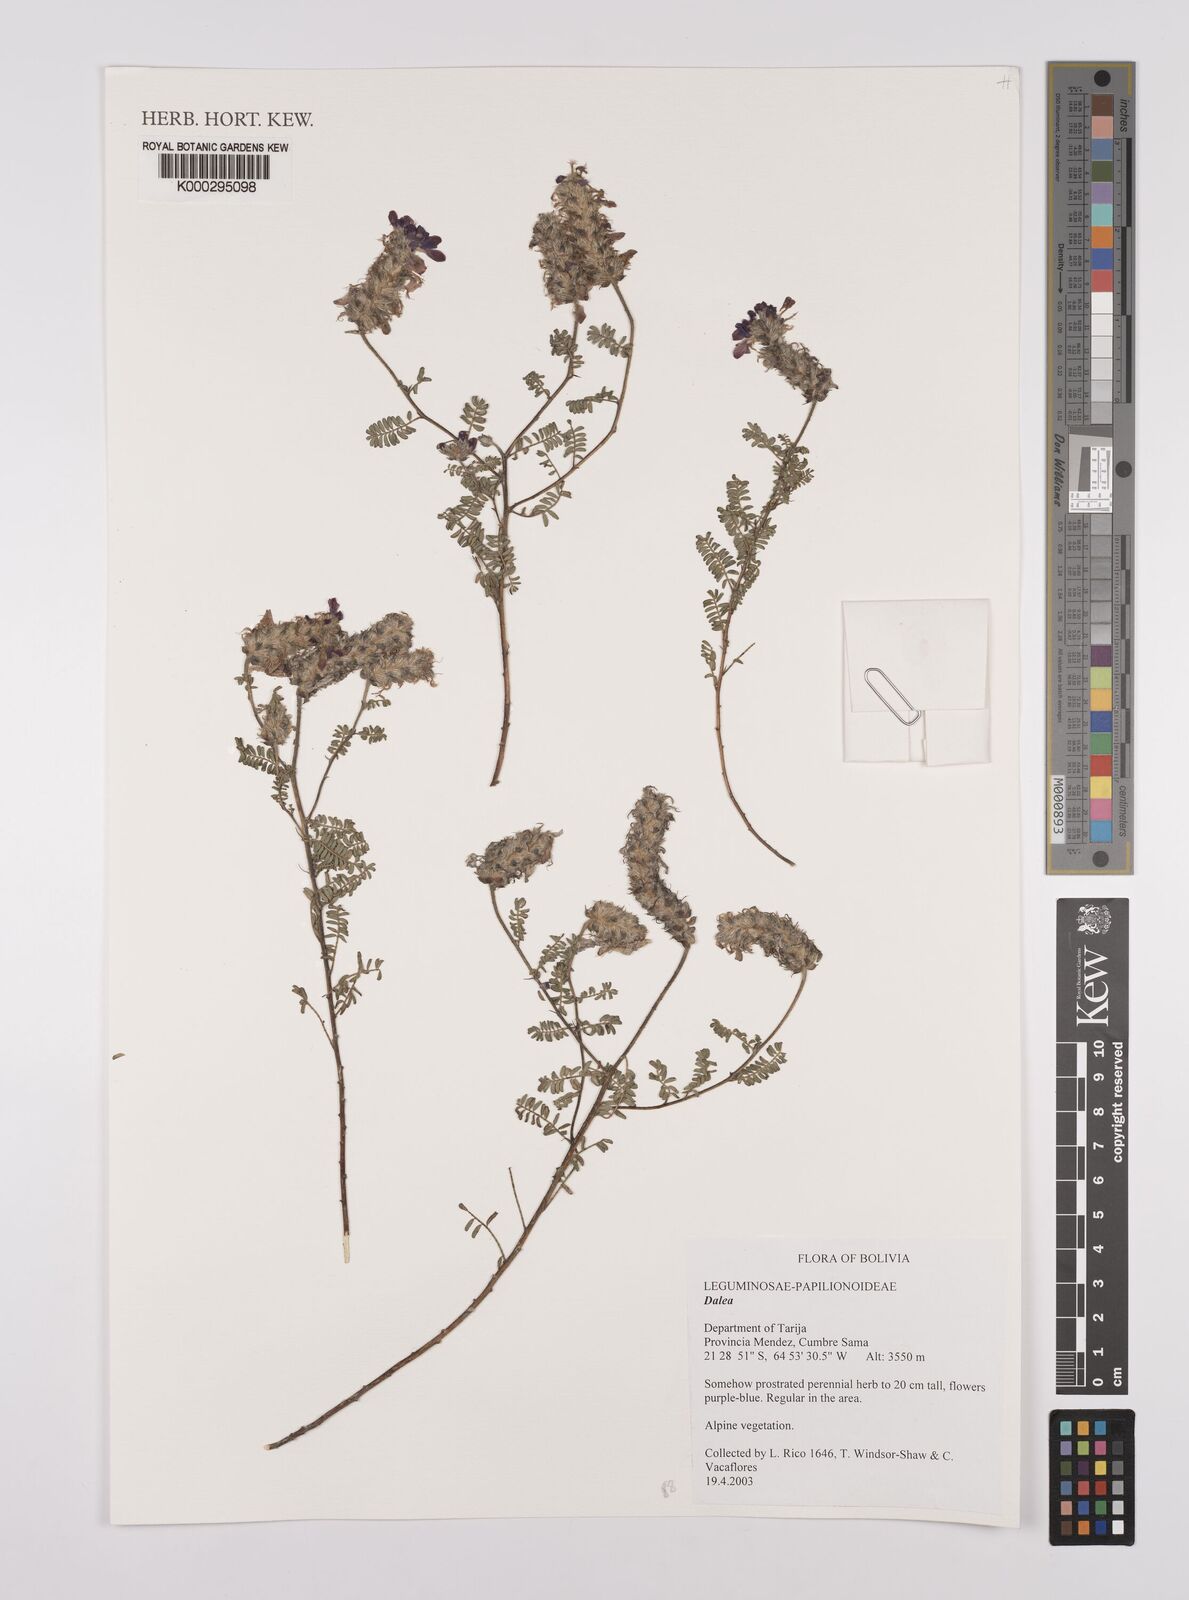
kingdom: Plantae
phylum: Tracheophyta
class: Magnoliopsida
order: Fabales
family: Fabaceae
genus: Dalea
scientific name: Dalea
